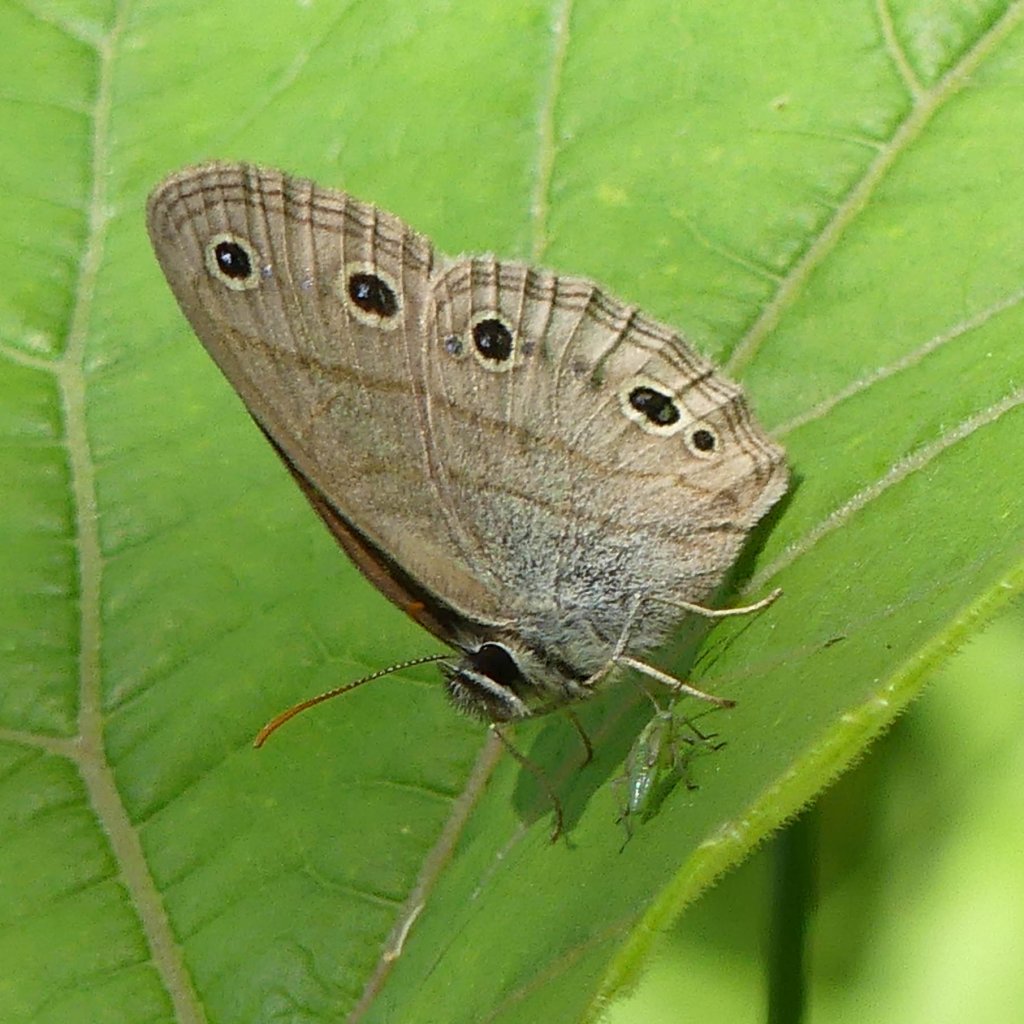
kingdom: Animalia
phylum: Arthropoda
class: Insecta
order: Lepidoptera
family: Nymphalidae
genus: Euptychia
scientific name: Euptychia cymela
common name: Little Wood Satyr
